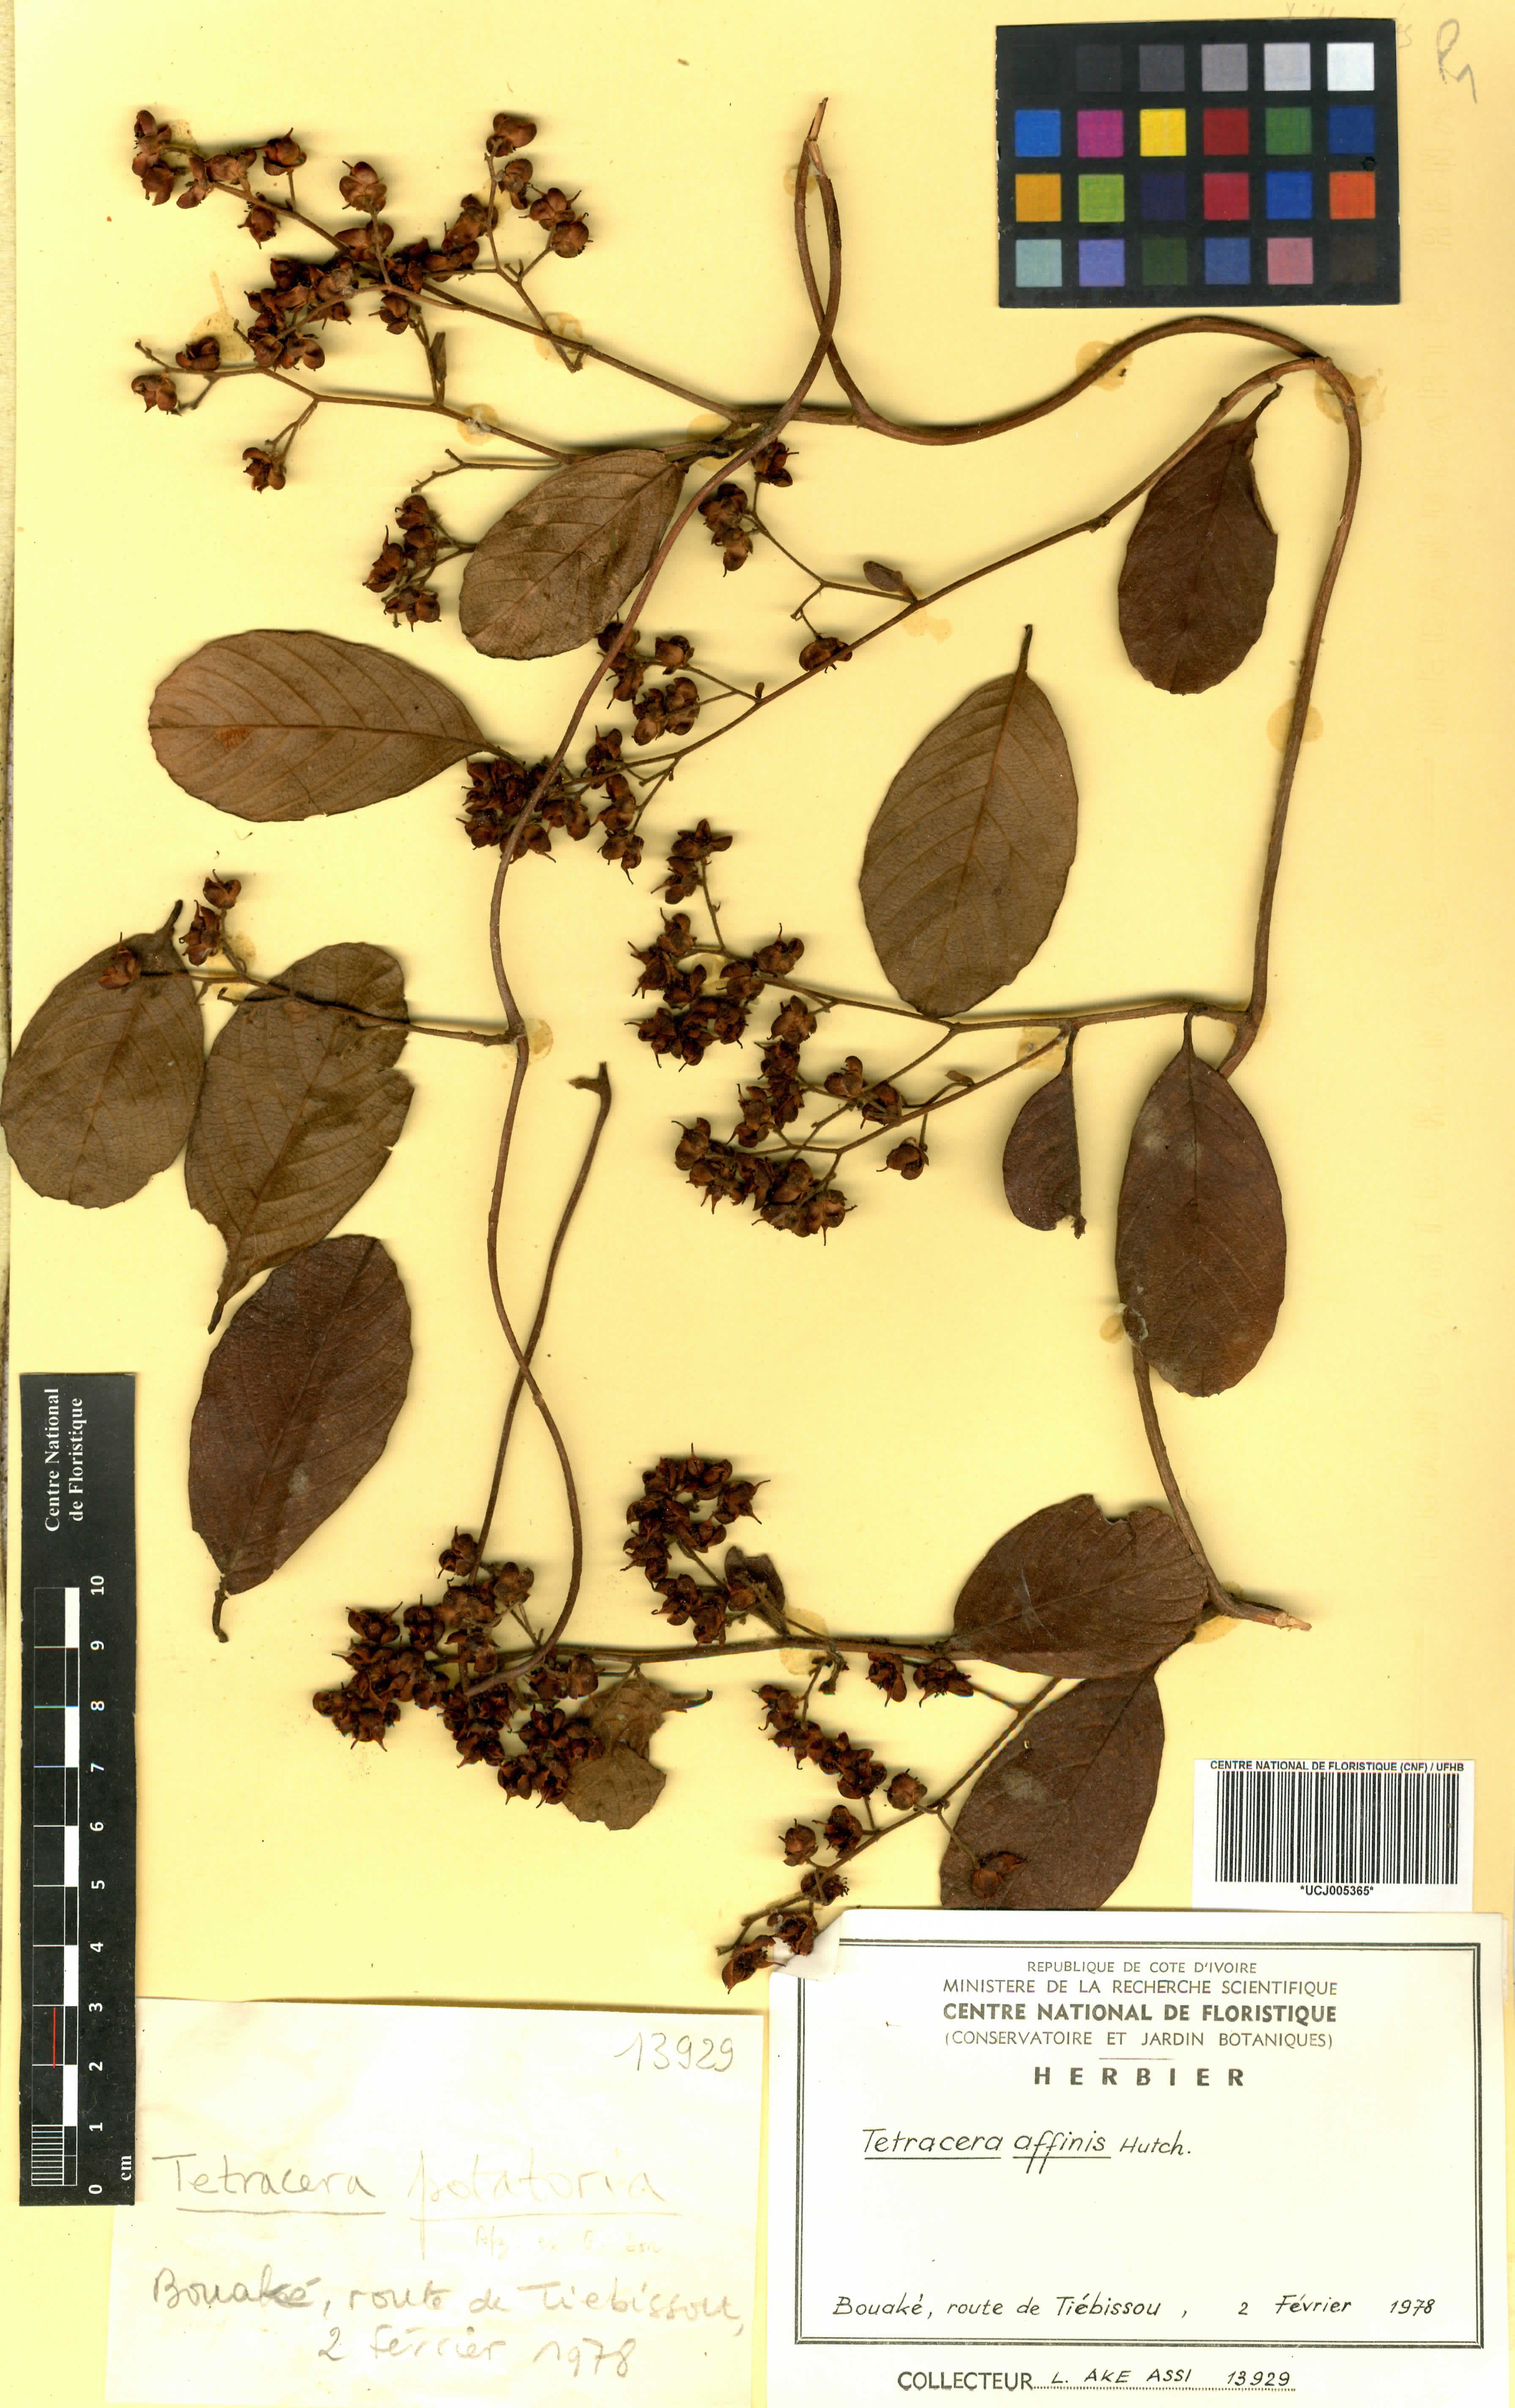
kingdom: Plantae
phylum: Tracheophyta
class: Magnoliopsida
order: Dilleniales
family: Dilleniaceae
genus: Tetracera
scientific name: Tetracera affinis
